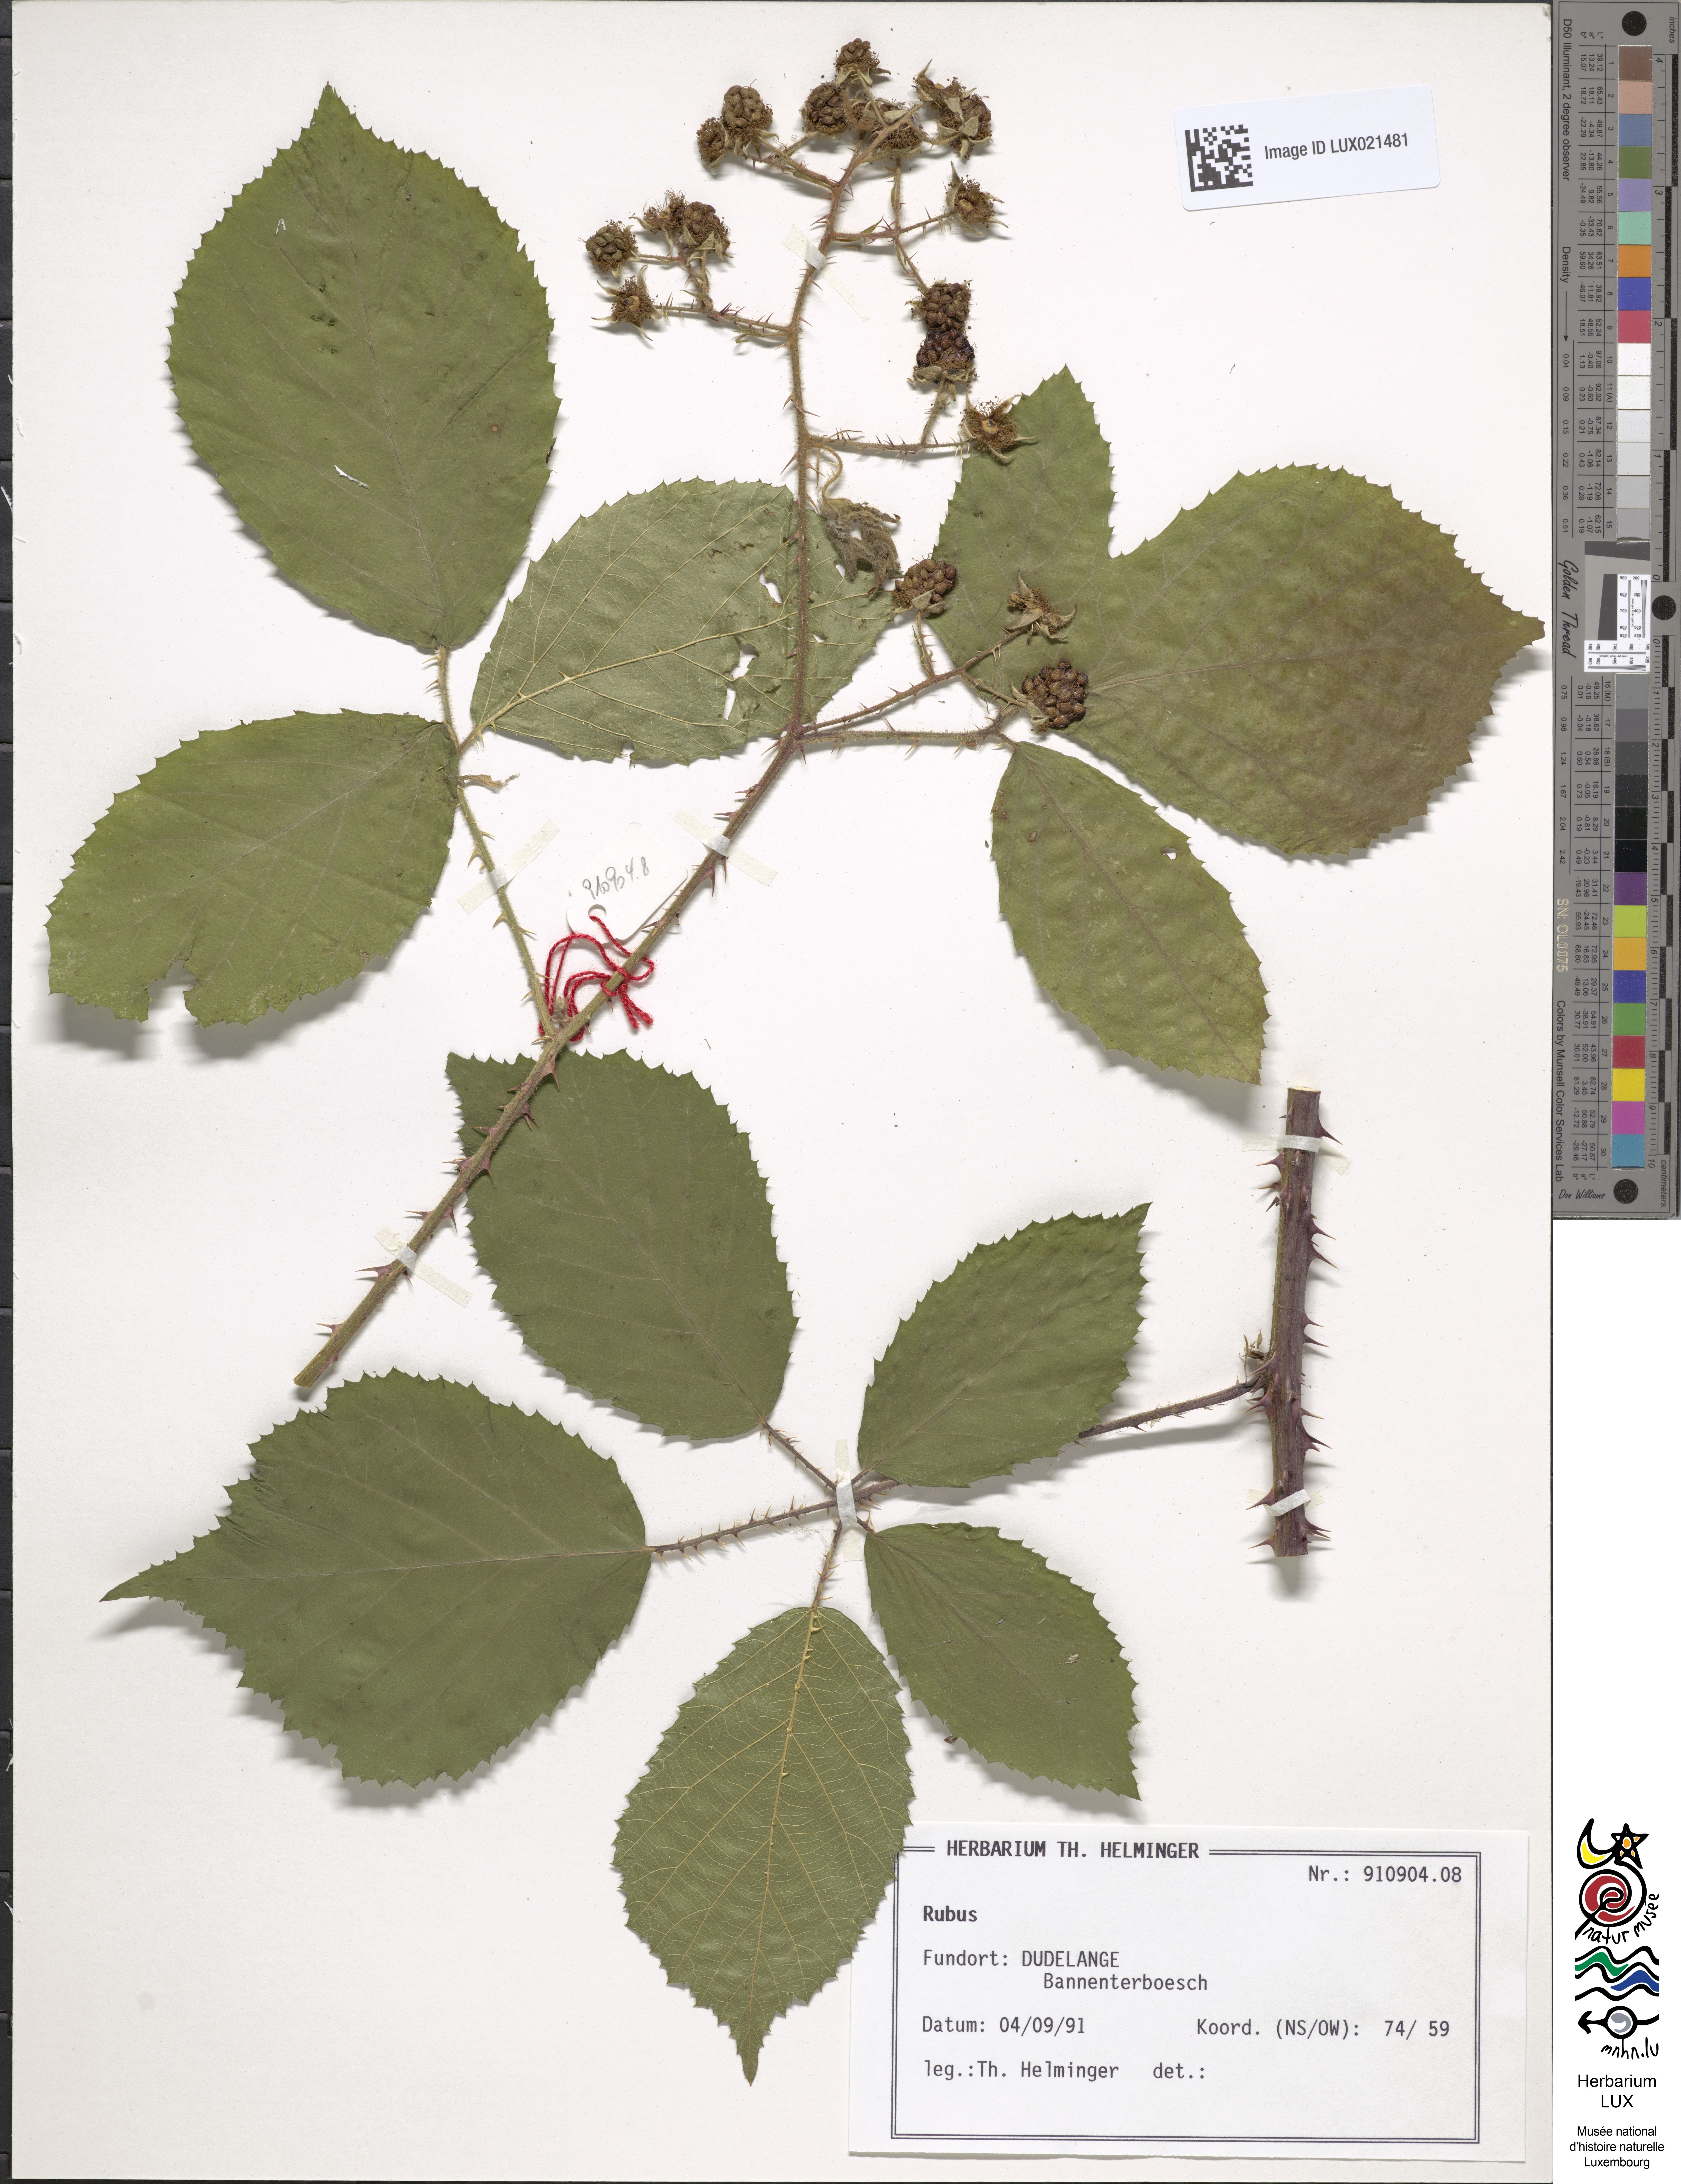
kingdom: Plantae
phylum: Tracheophyta
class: Magnoliopsida
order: Rosales
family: Rosaceae
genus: Rubus
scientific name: Rubus
